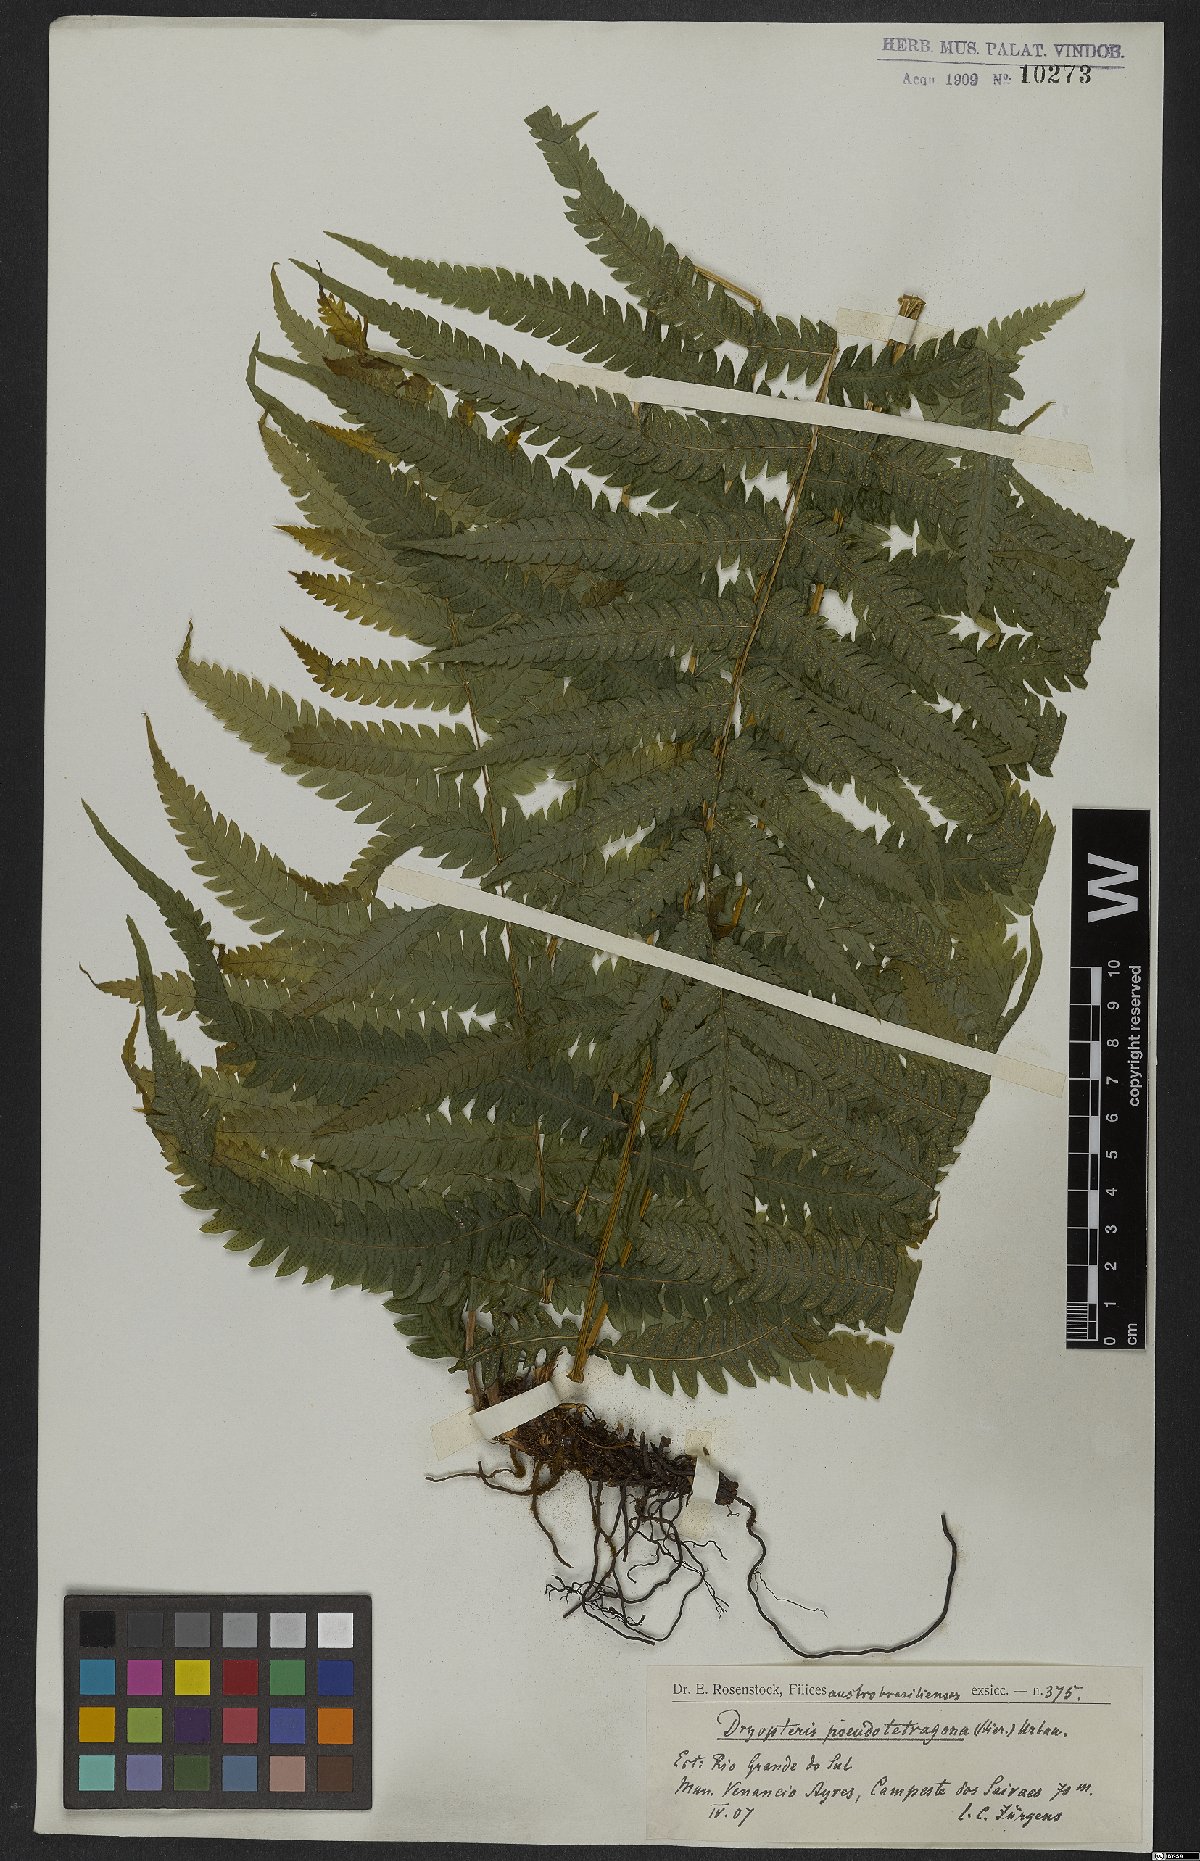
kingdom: Plantae
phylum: Tracheophyta
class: Polypodiopsida
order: Polypodiales
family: Thelypteridaceae
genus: Goniopteris
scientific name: Goniopteris lugubris
